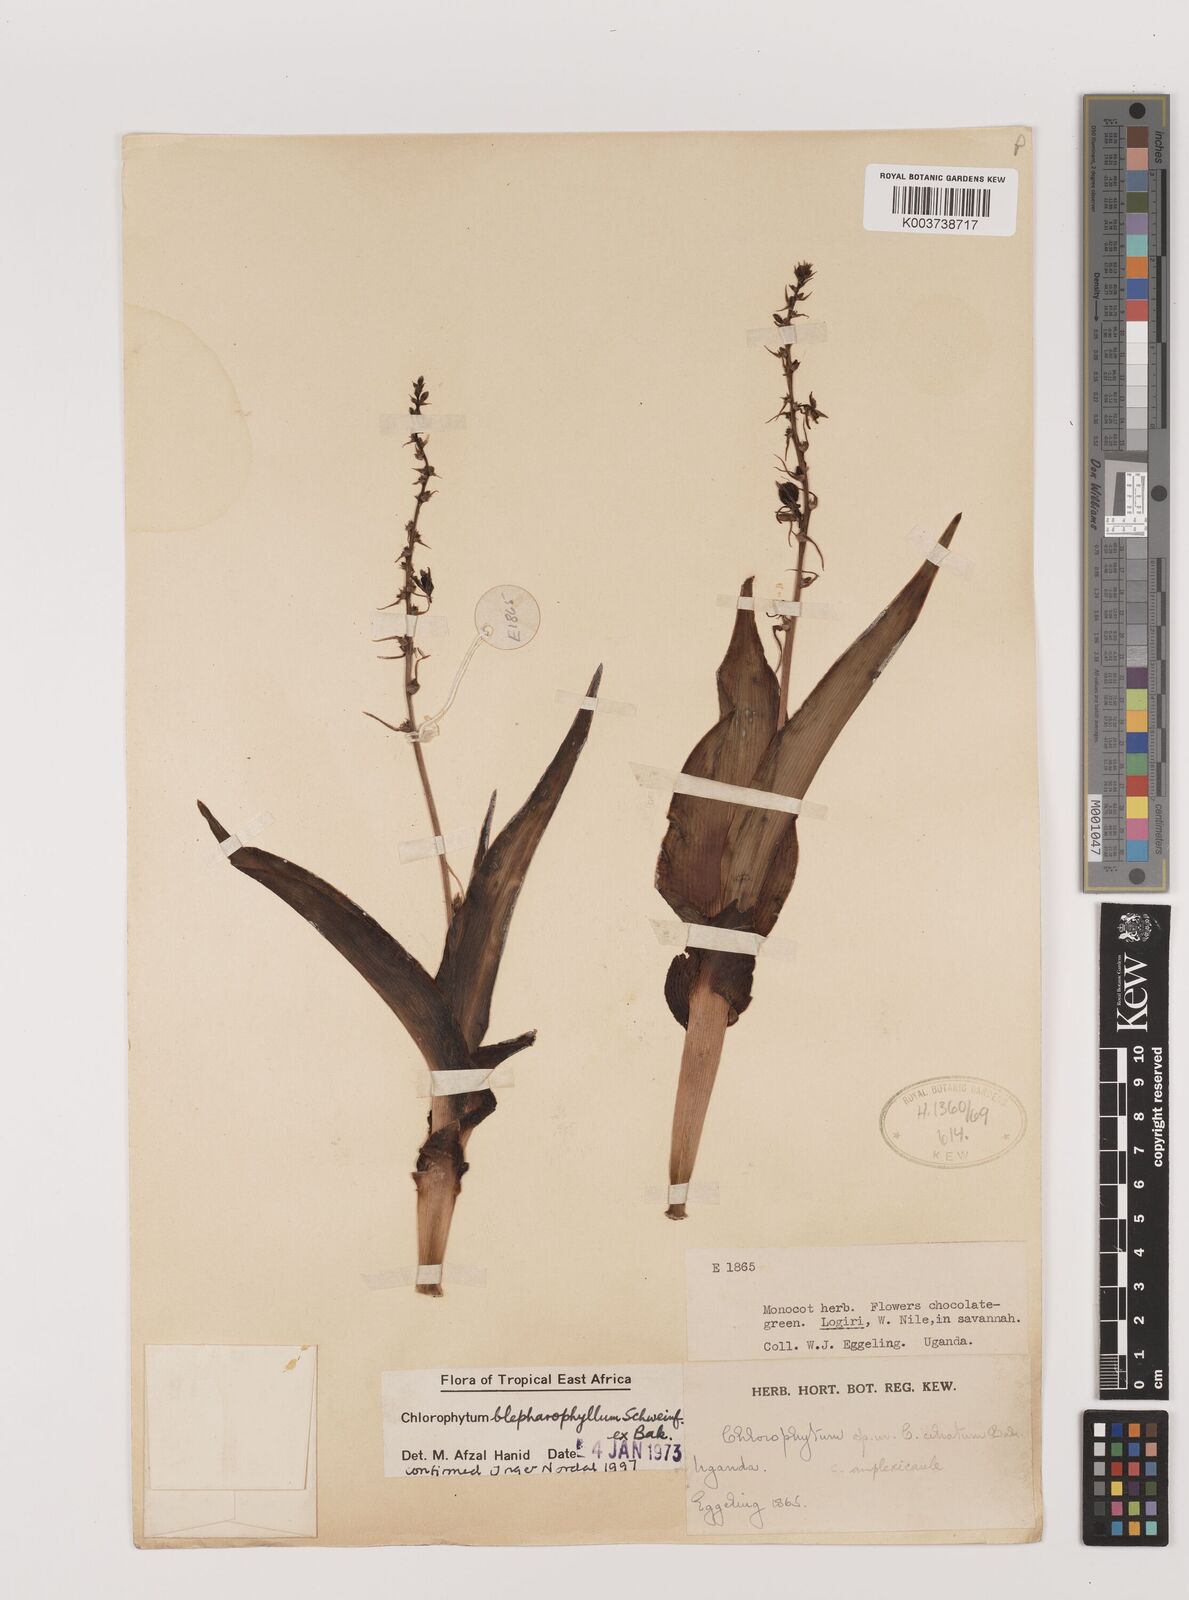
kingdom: Plantae
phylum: Tracheophyta
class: Liliopsida
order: Asparagales
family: Asparagaceae
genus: Chlorophytum
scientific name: Chlorophytum blepharophyllum
